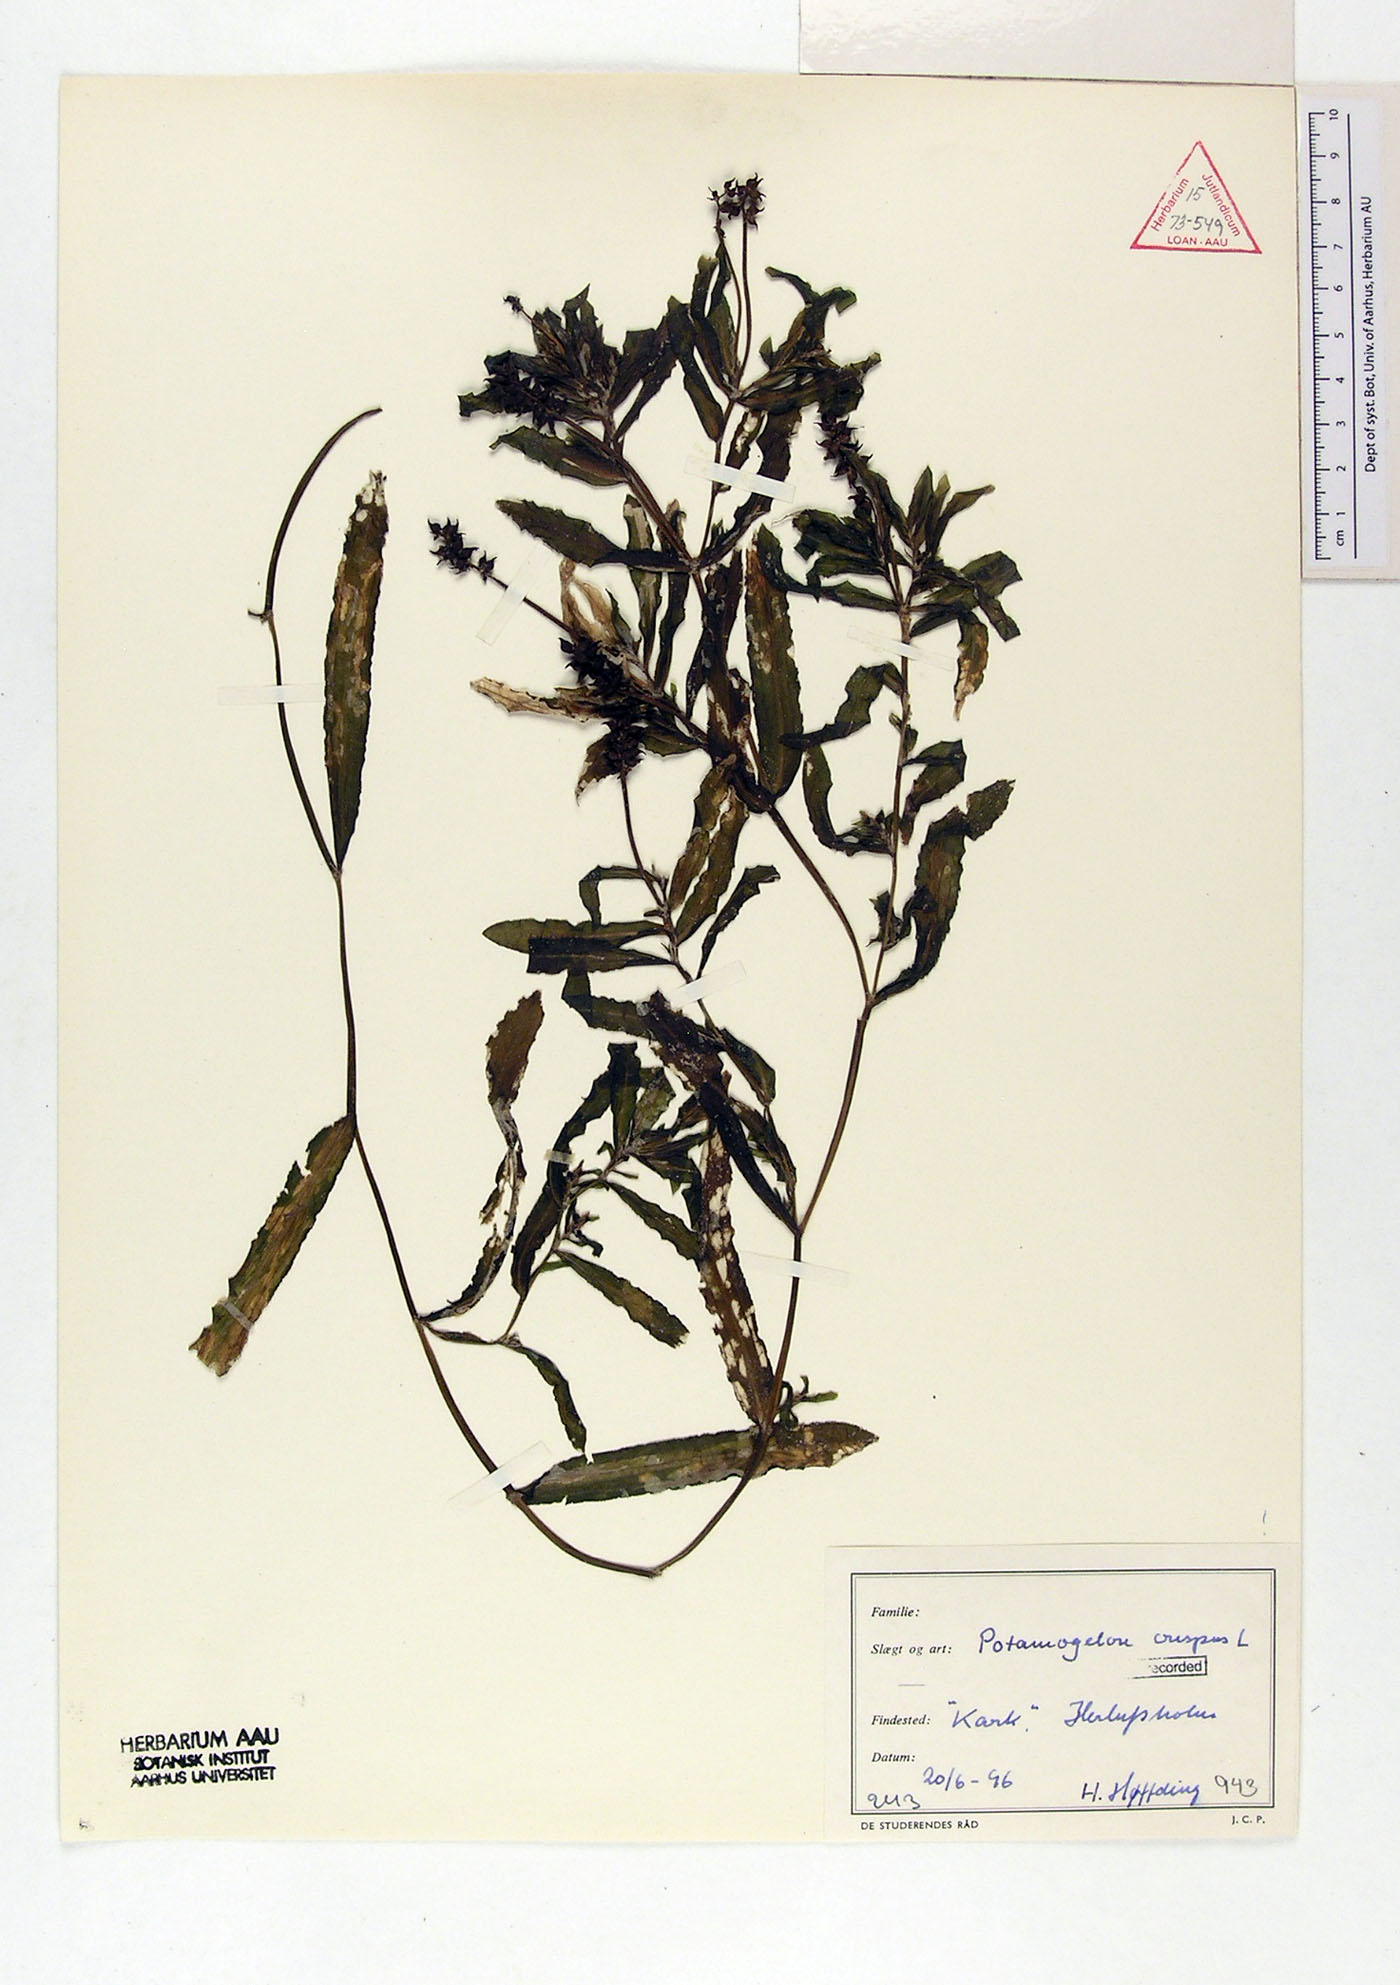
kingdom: Plantae
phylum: Tracheophyta
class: Liliopsida
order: Alismatales
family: Potamogetonaceae
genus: Potamogeton
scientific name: Potamogeton crispus
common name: Curled pondweed
